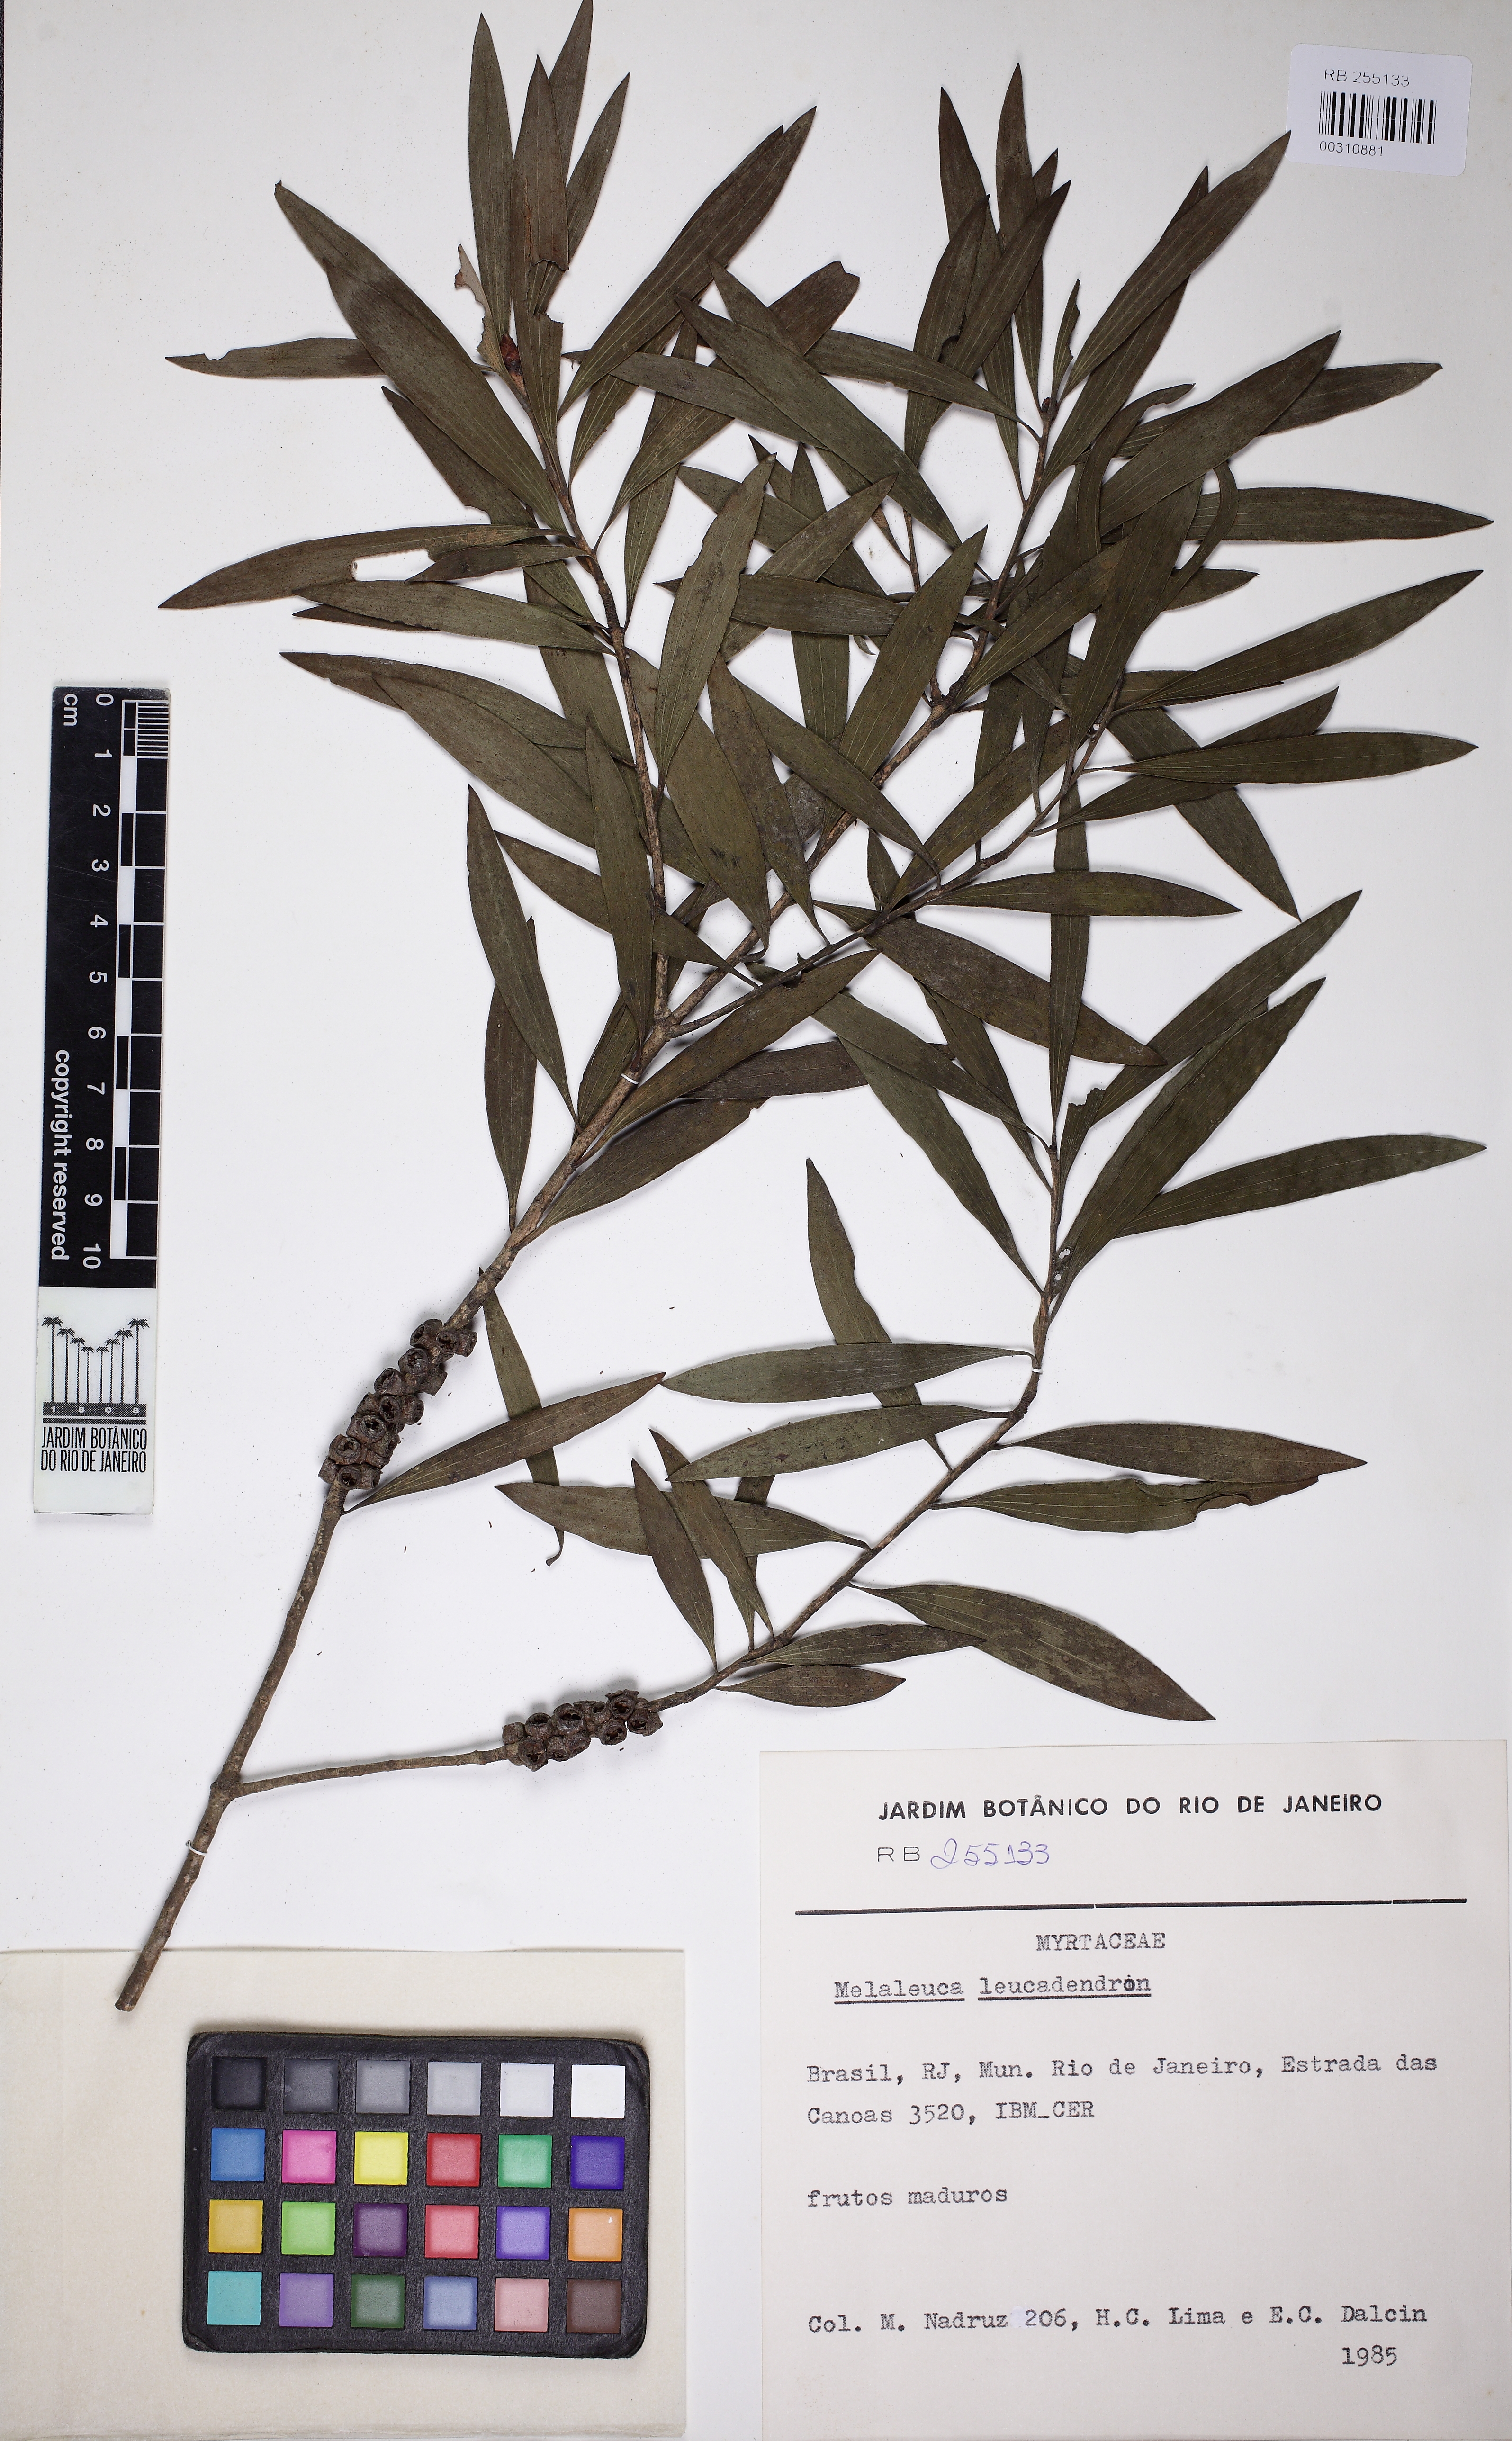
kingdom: Plantae
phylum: Tracheophyta
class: Magnoliopsida
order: Myrtales
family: Myrtaceae
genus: Melaleuca
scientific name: Melaleuca leucadendra
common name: Weeping paperbark
